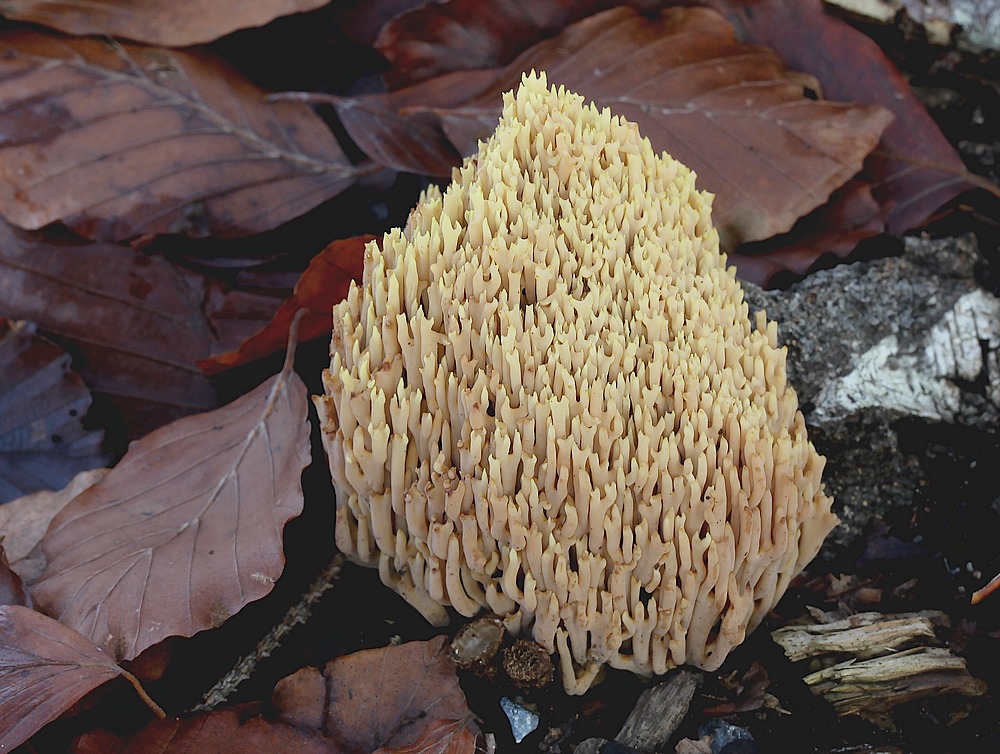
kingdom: Fungi
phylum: Basidiomycota
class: Agaricomycetes
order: Gomphales
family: Gomphaceae
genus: Ramaria
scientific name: Ramaria stricta
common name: rank koralsvamp
